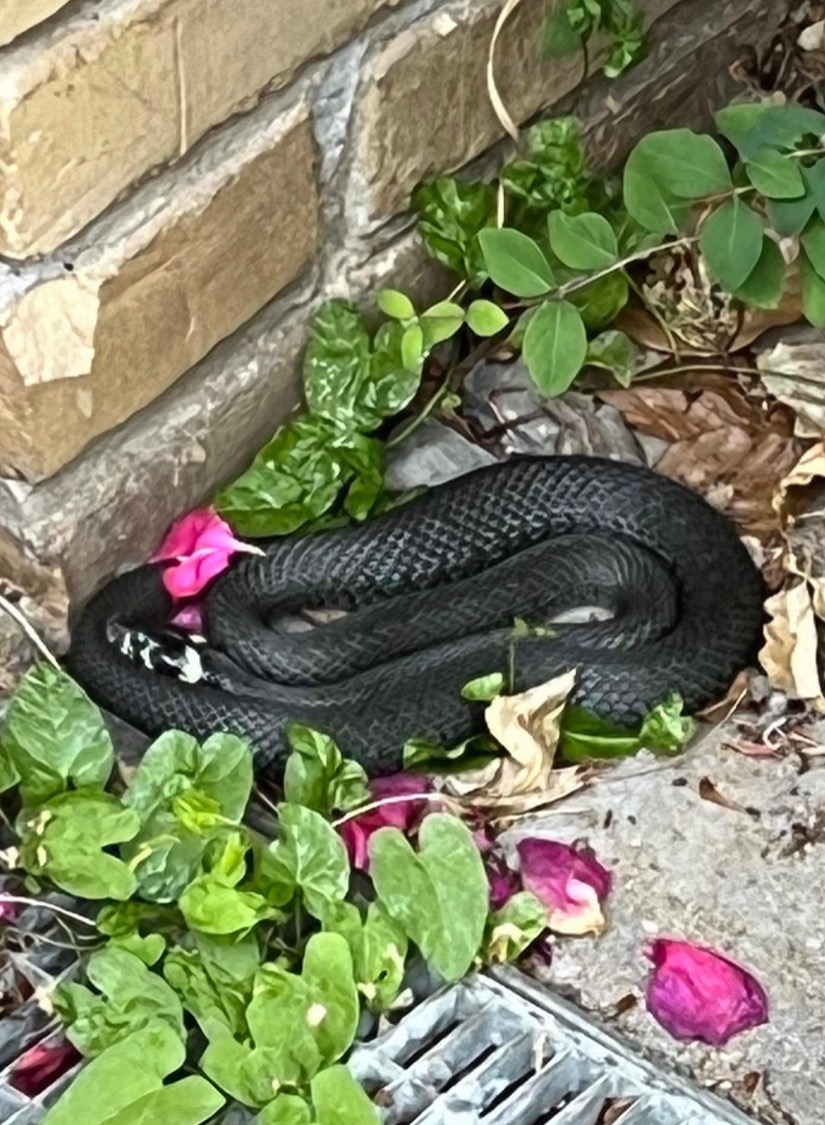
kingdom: Animalia
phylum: Chordata
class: Squamata
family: Colubridae
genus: Natrix
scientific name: Natrix natrix
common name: Snog
